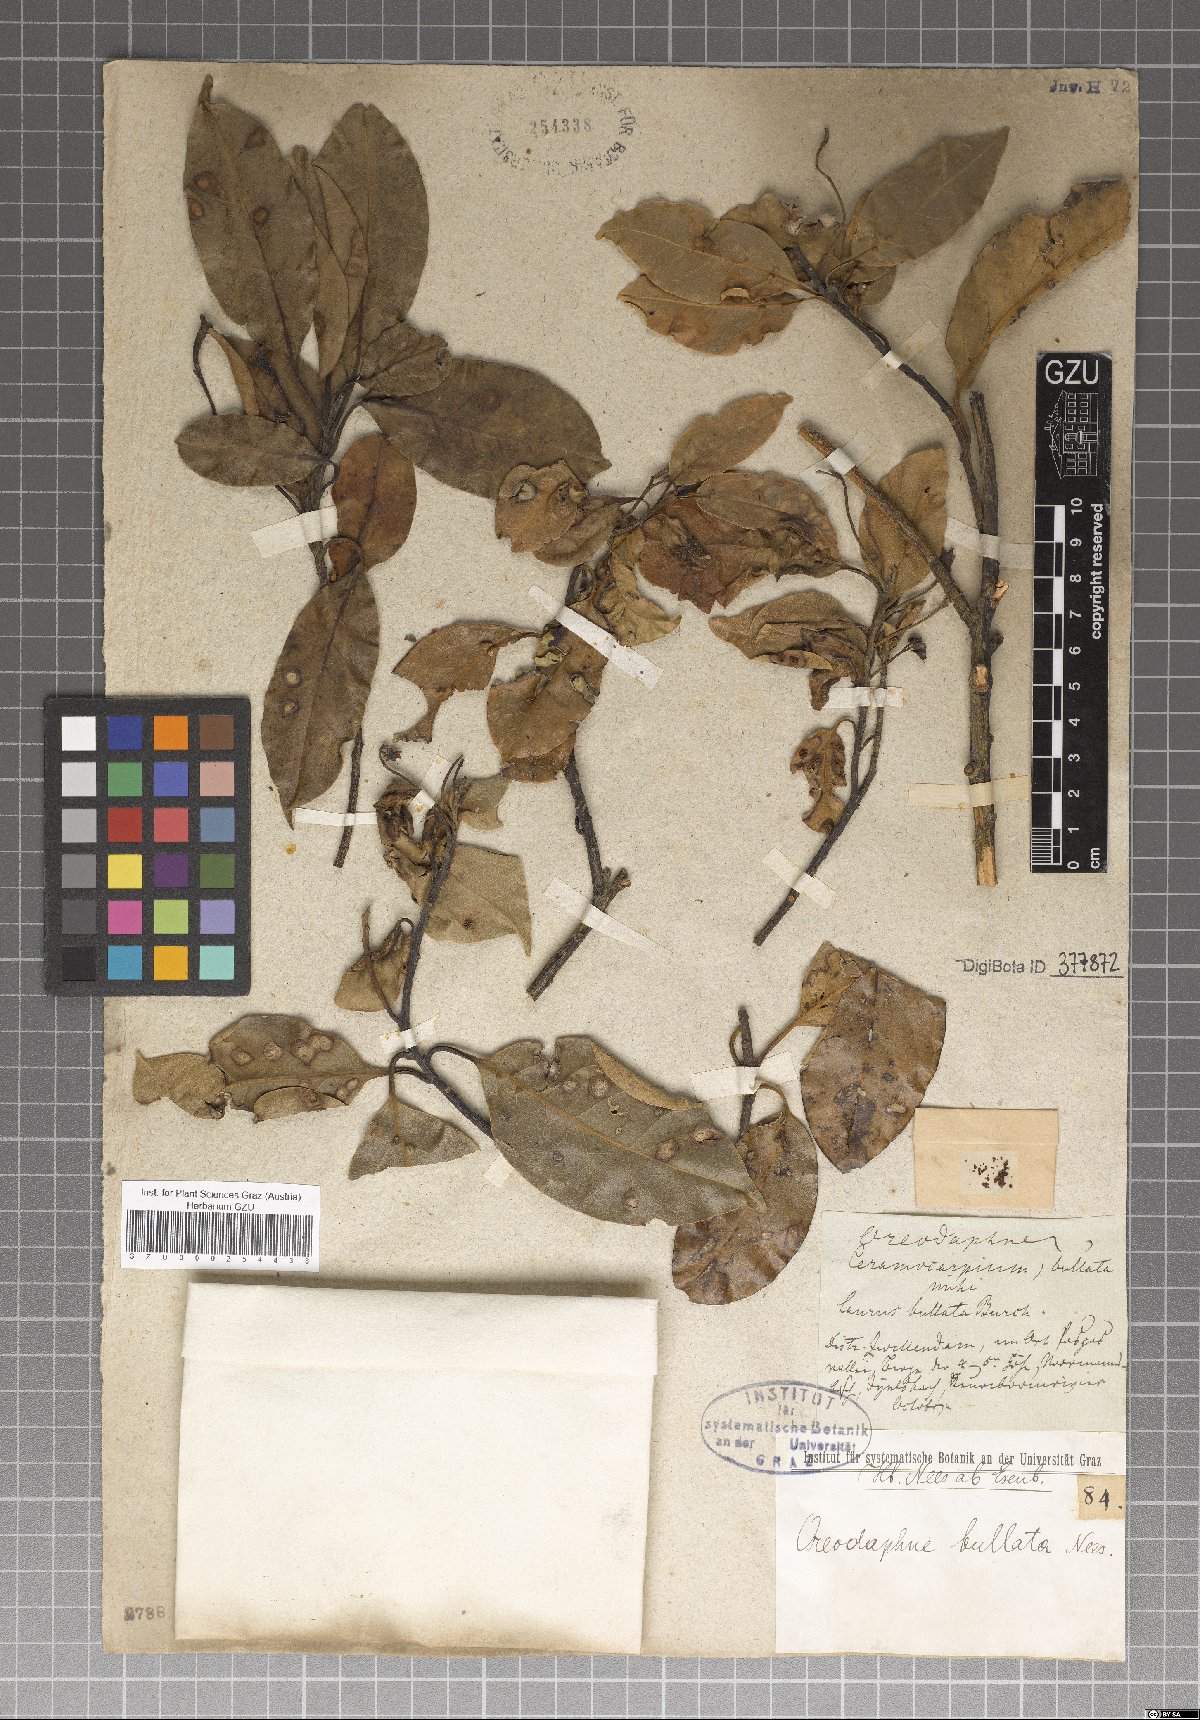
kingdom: Plantae
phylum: Tracheophyta
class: Magnoliopsida
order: Laurales
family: Lauraceae
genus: Sassafras
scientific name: Sassafras albidum
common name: Sassafras
